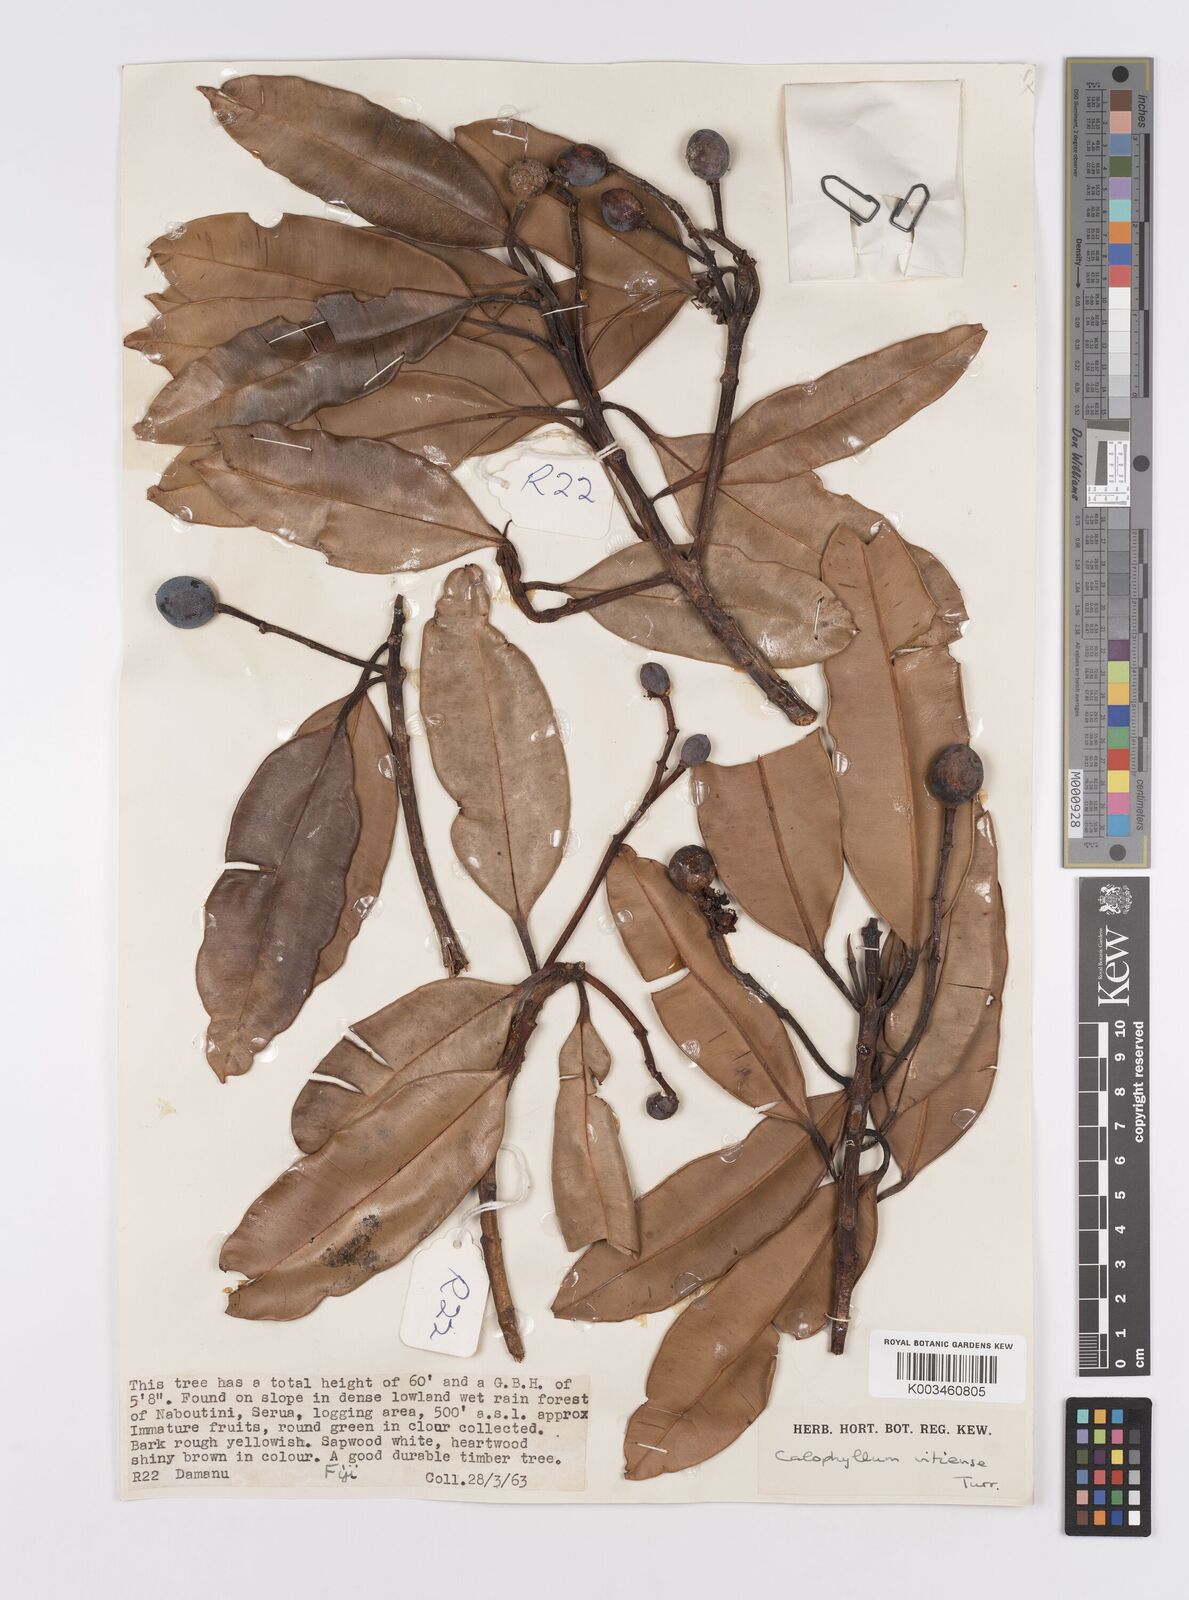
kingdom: Plantae
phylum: Tracheophyta
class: Magnoliopsida
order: Malpighiales
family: Calophyllaceae
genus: Calophyllum
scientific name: Calophyllum cerasiferum
